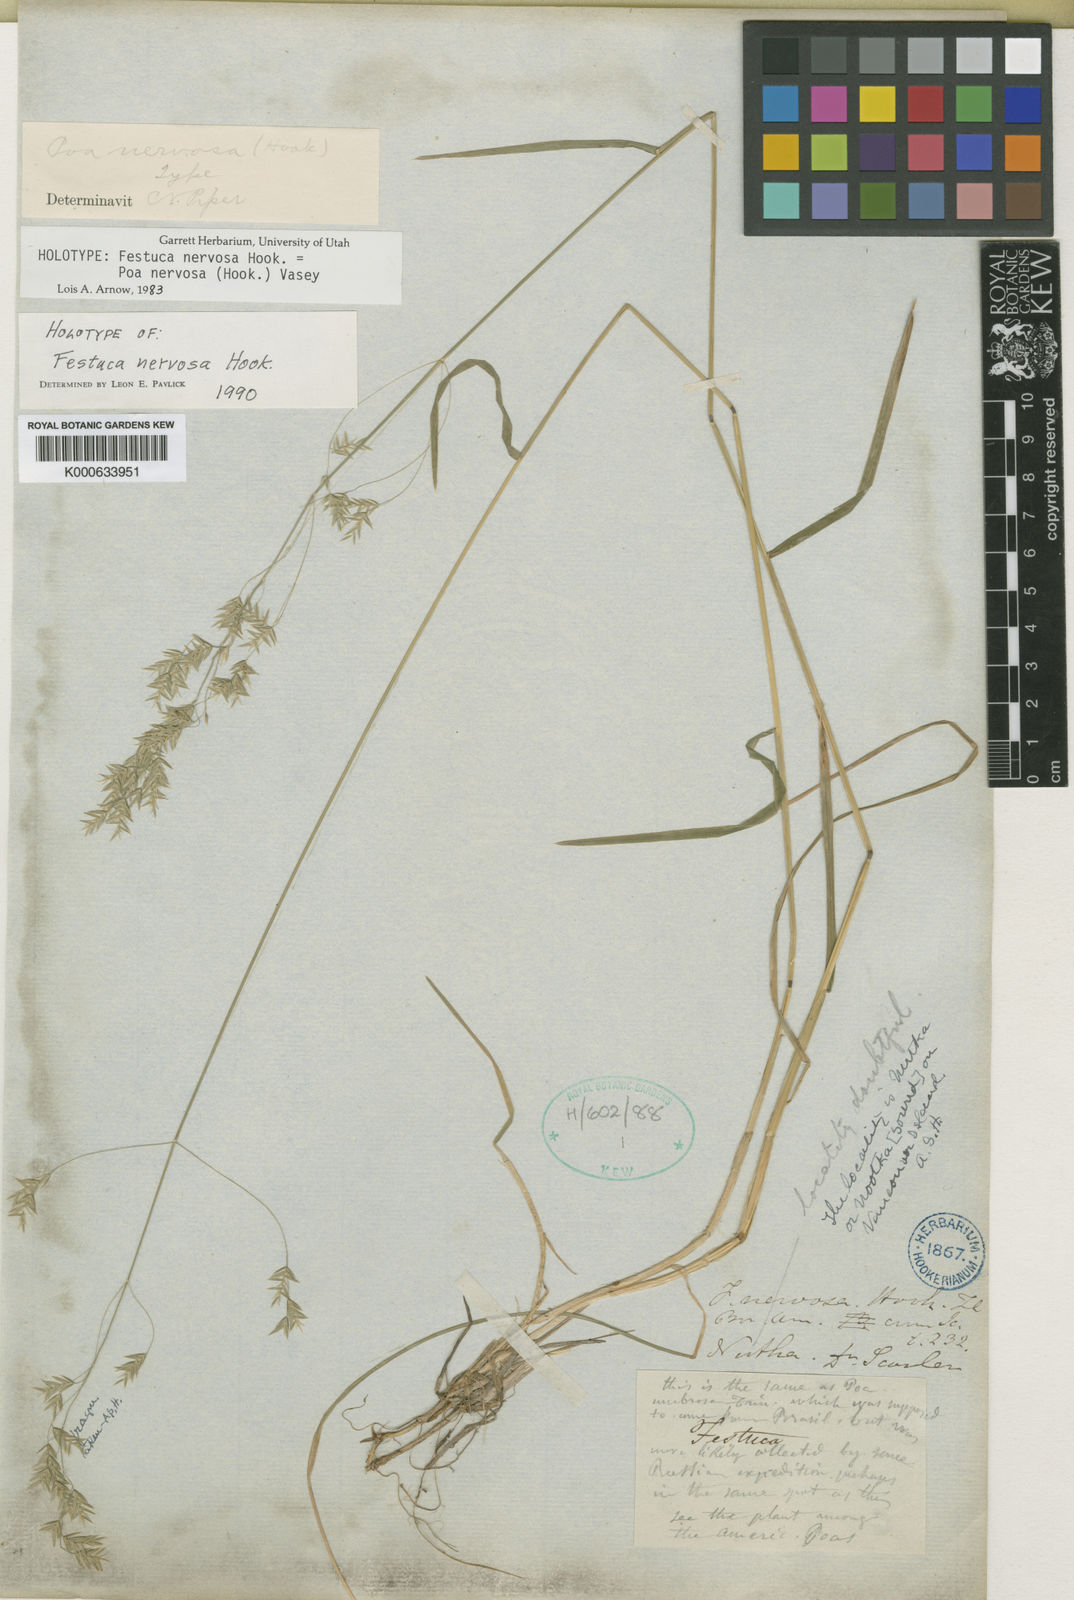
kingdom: Plantae
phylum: Tracheophyta
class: Liliopsida
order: Poales
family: Poaceae
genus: Poa
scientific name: Poa nervosa
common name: Hooker's bluegrass
